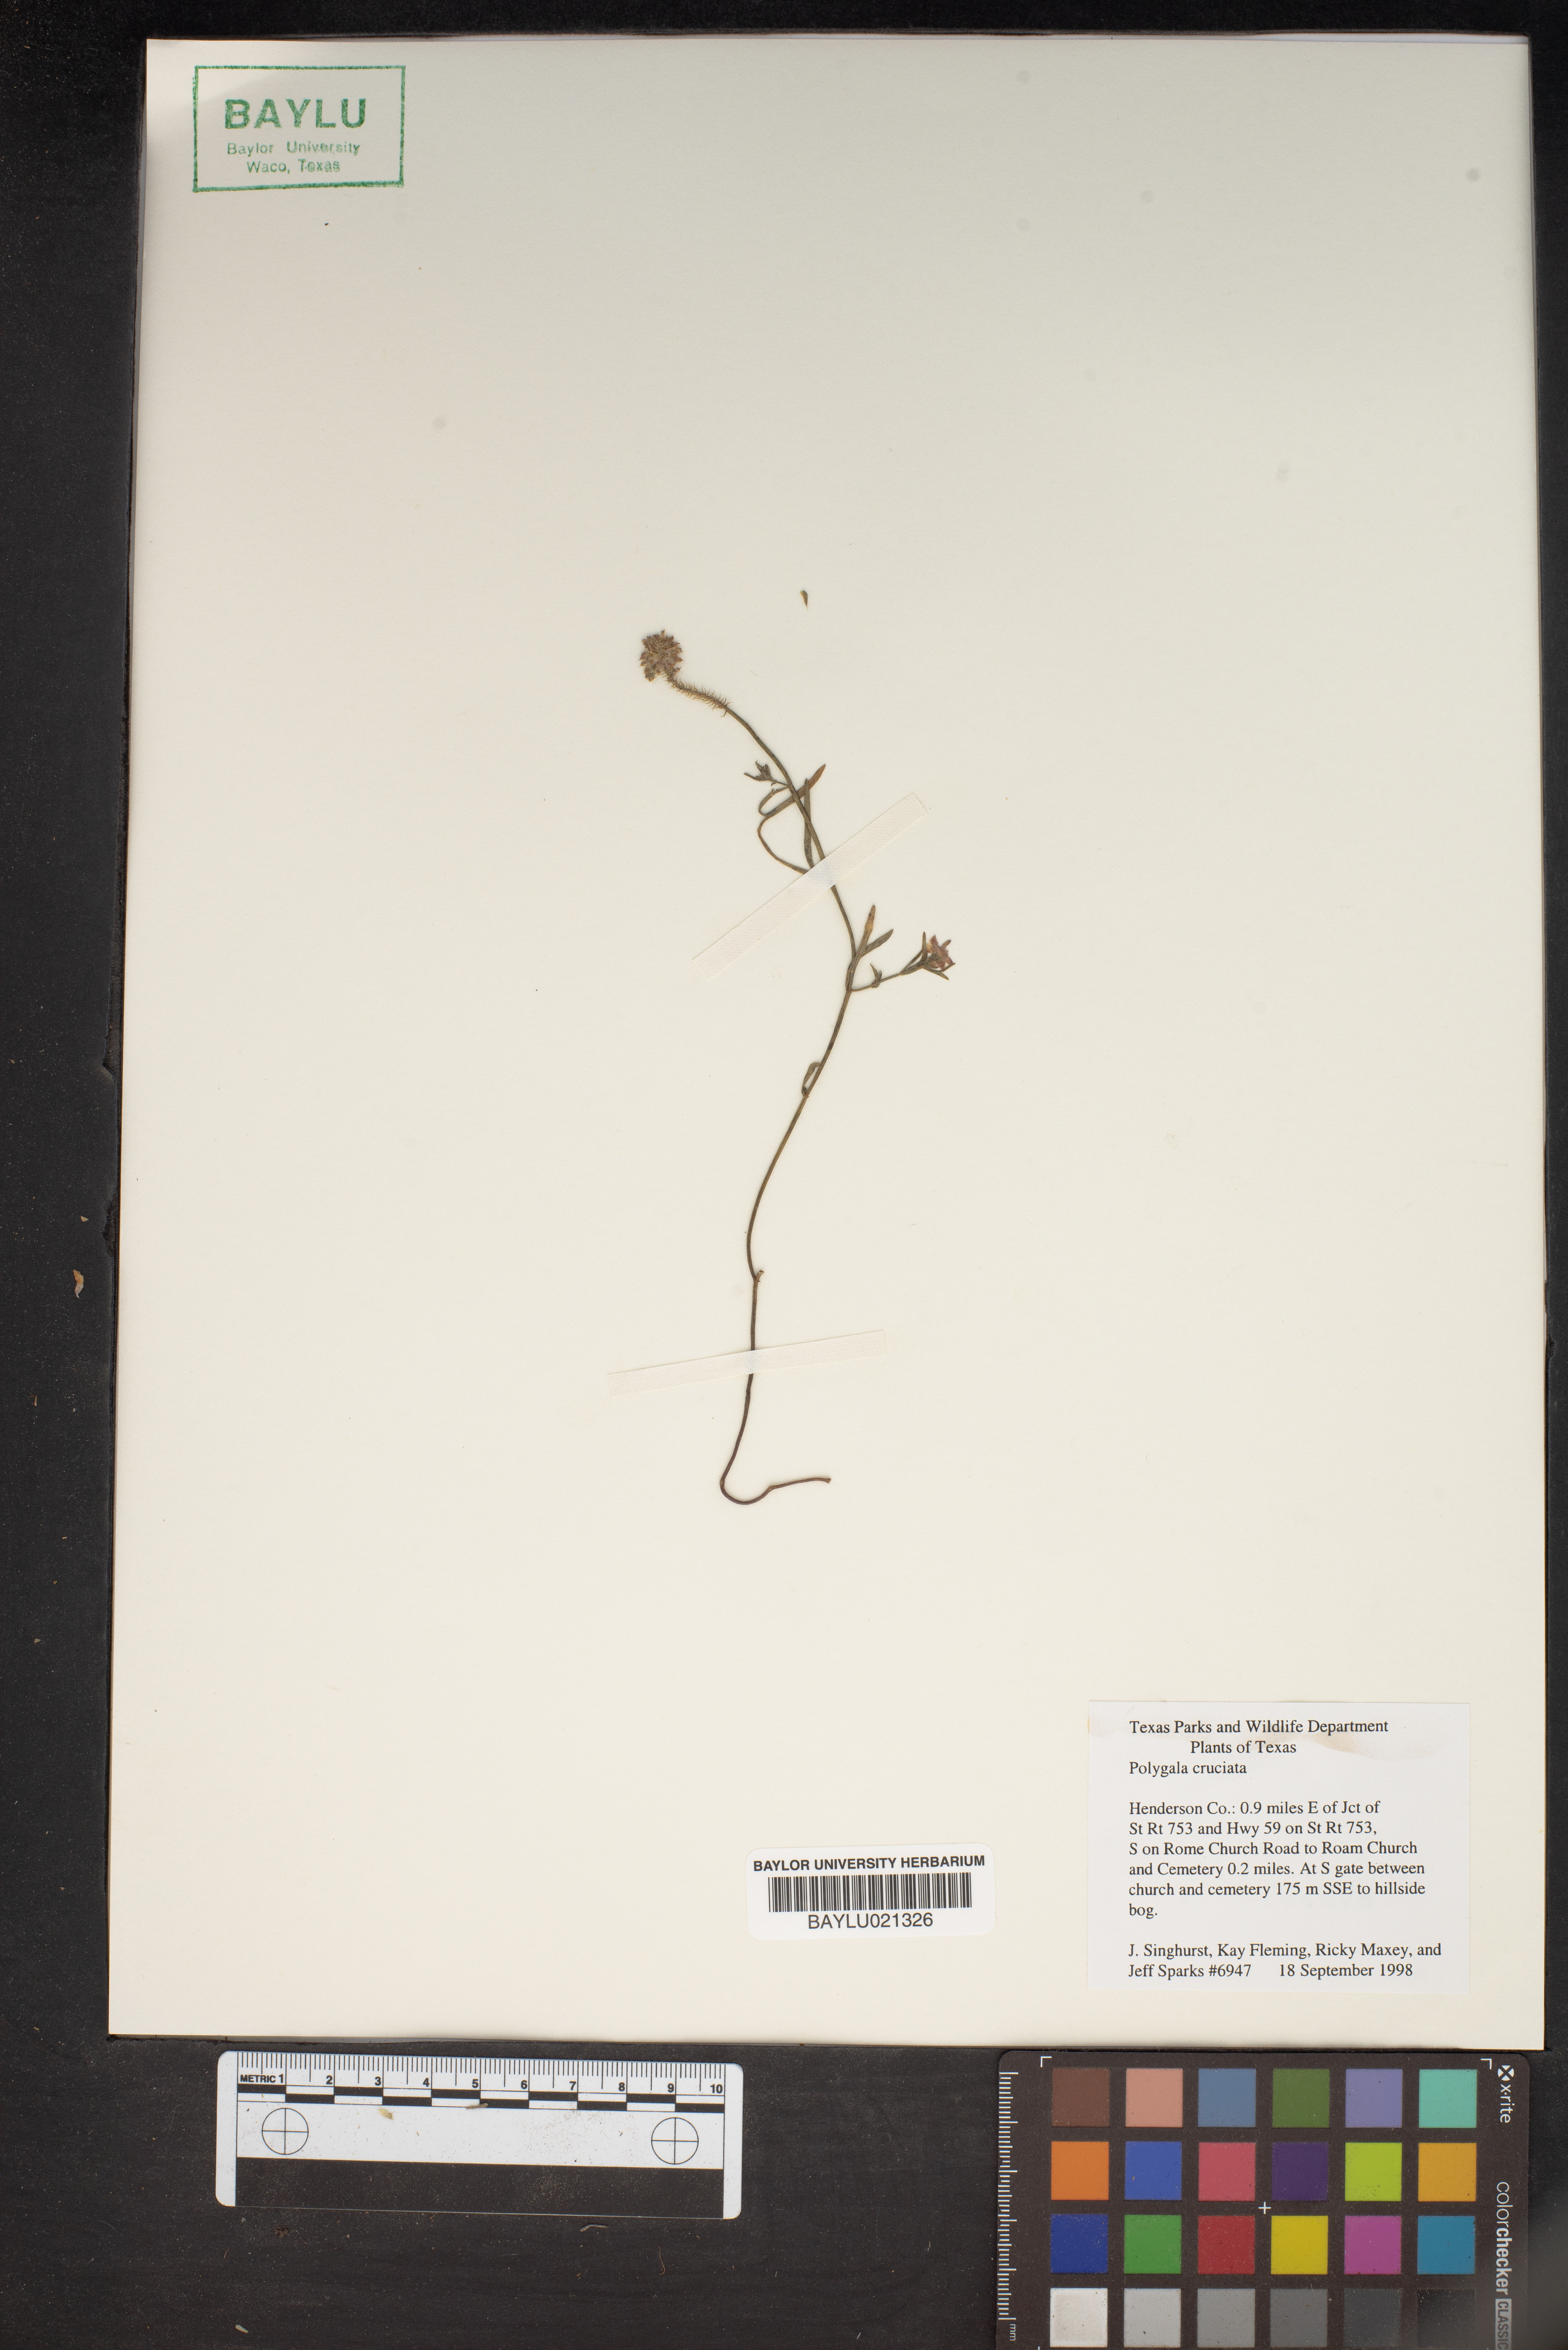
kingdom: Plantae
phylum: Tracheophyta
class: Magnoliopsida
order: Fabales
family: Polygalaceae
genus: Polygala
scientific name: Polygala cruciata
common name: Drumheads
